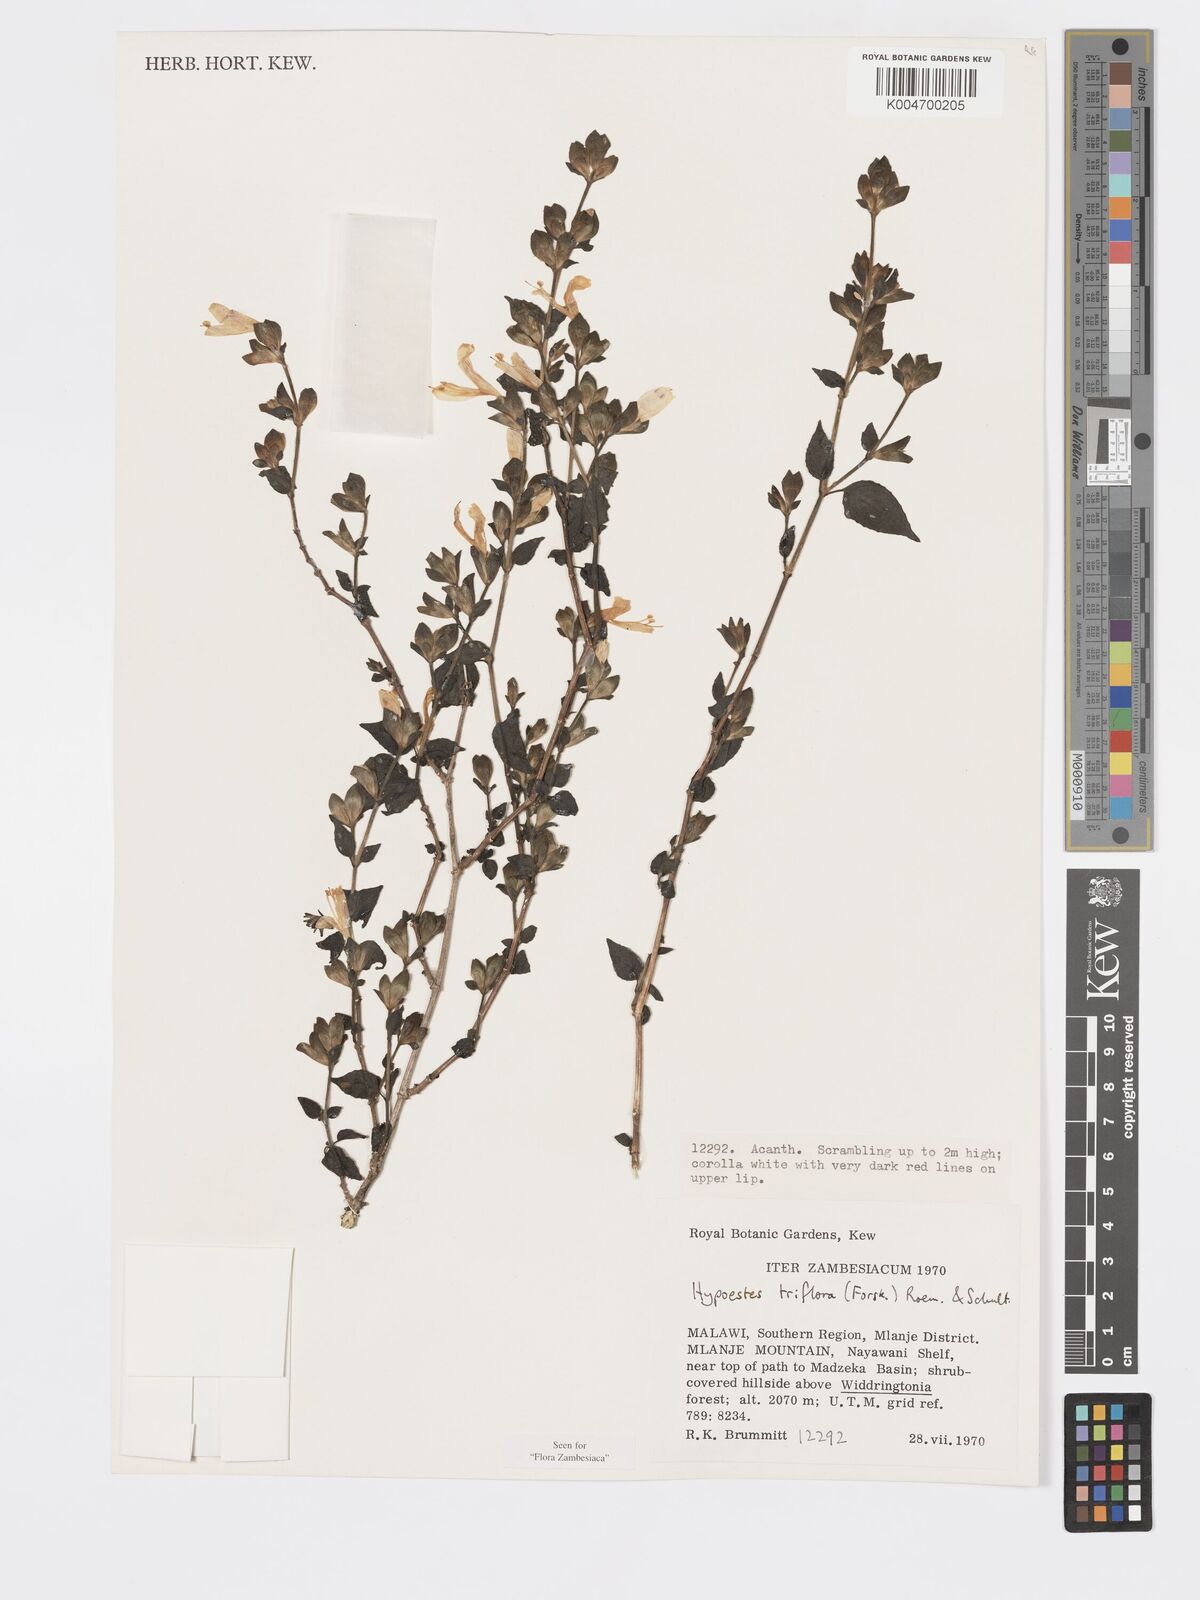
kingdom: Plantae
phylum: Tracheophyta
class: Magnoliopsida
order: Lamiales
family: Acanthaceae
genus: Hypoestes
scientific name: Hypoestes triflora
